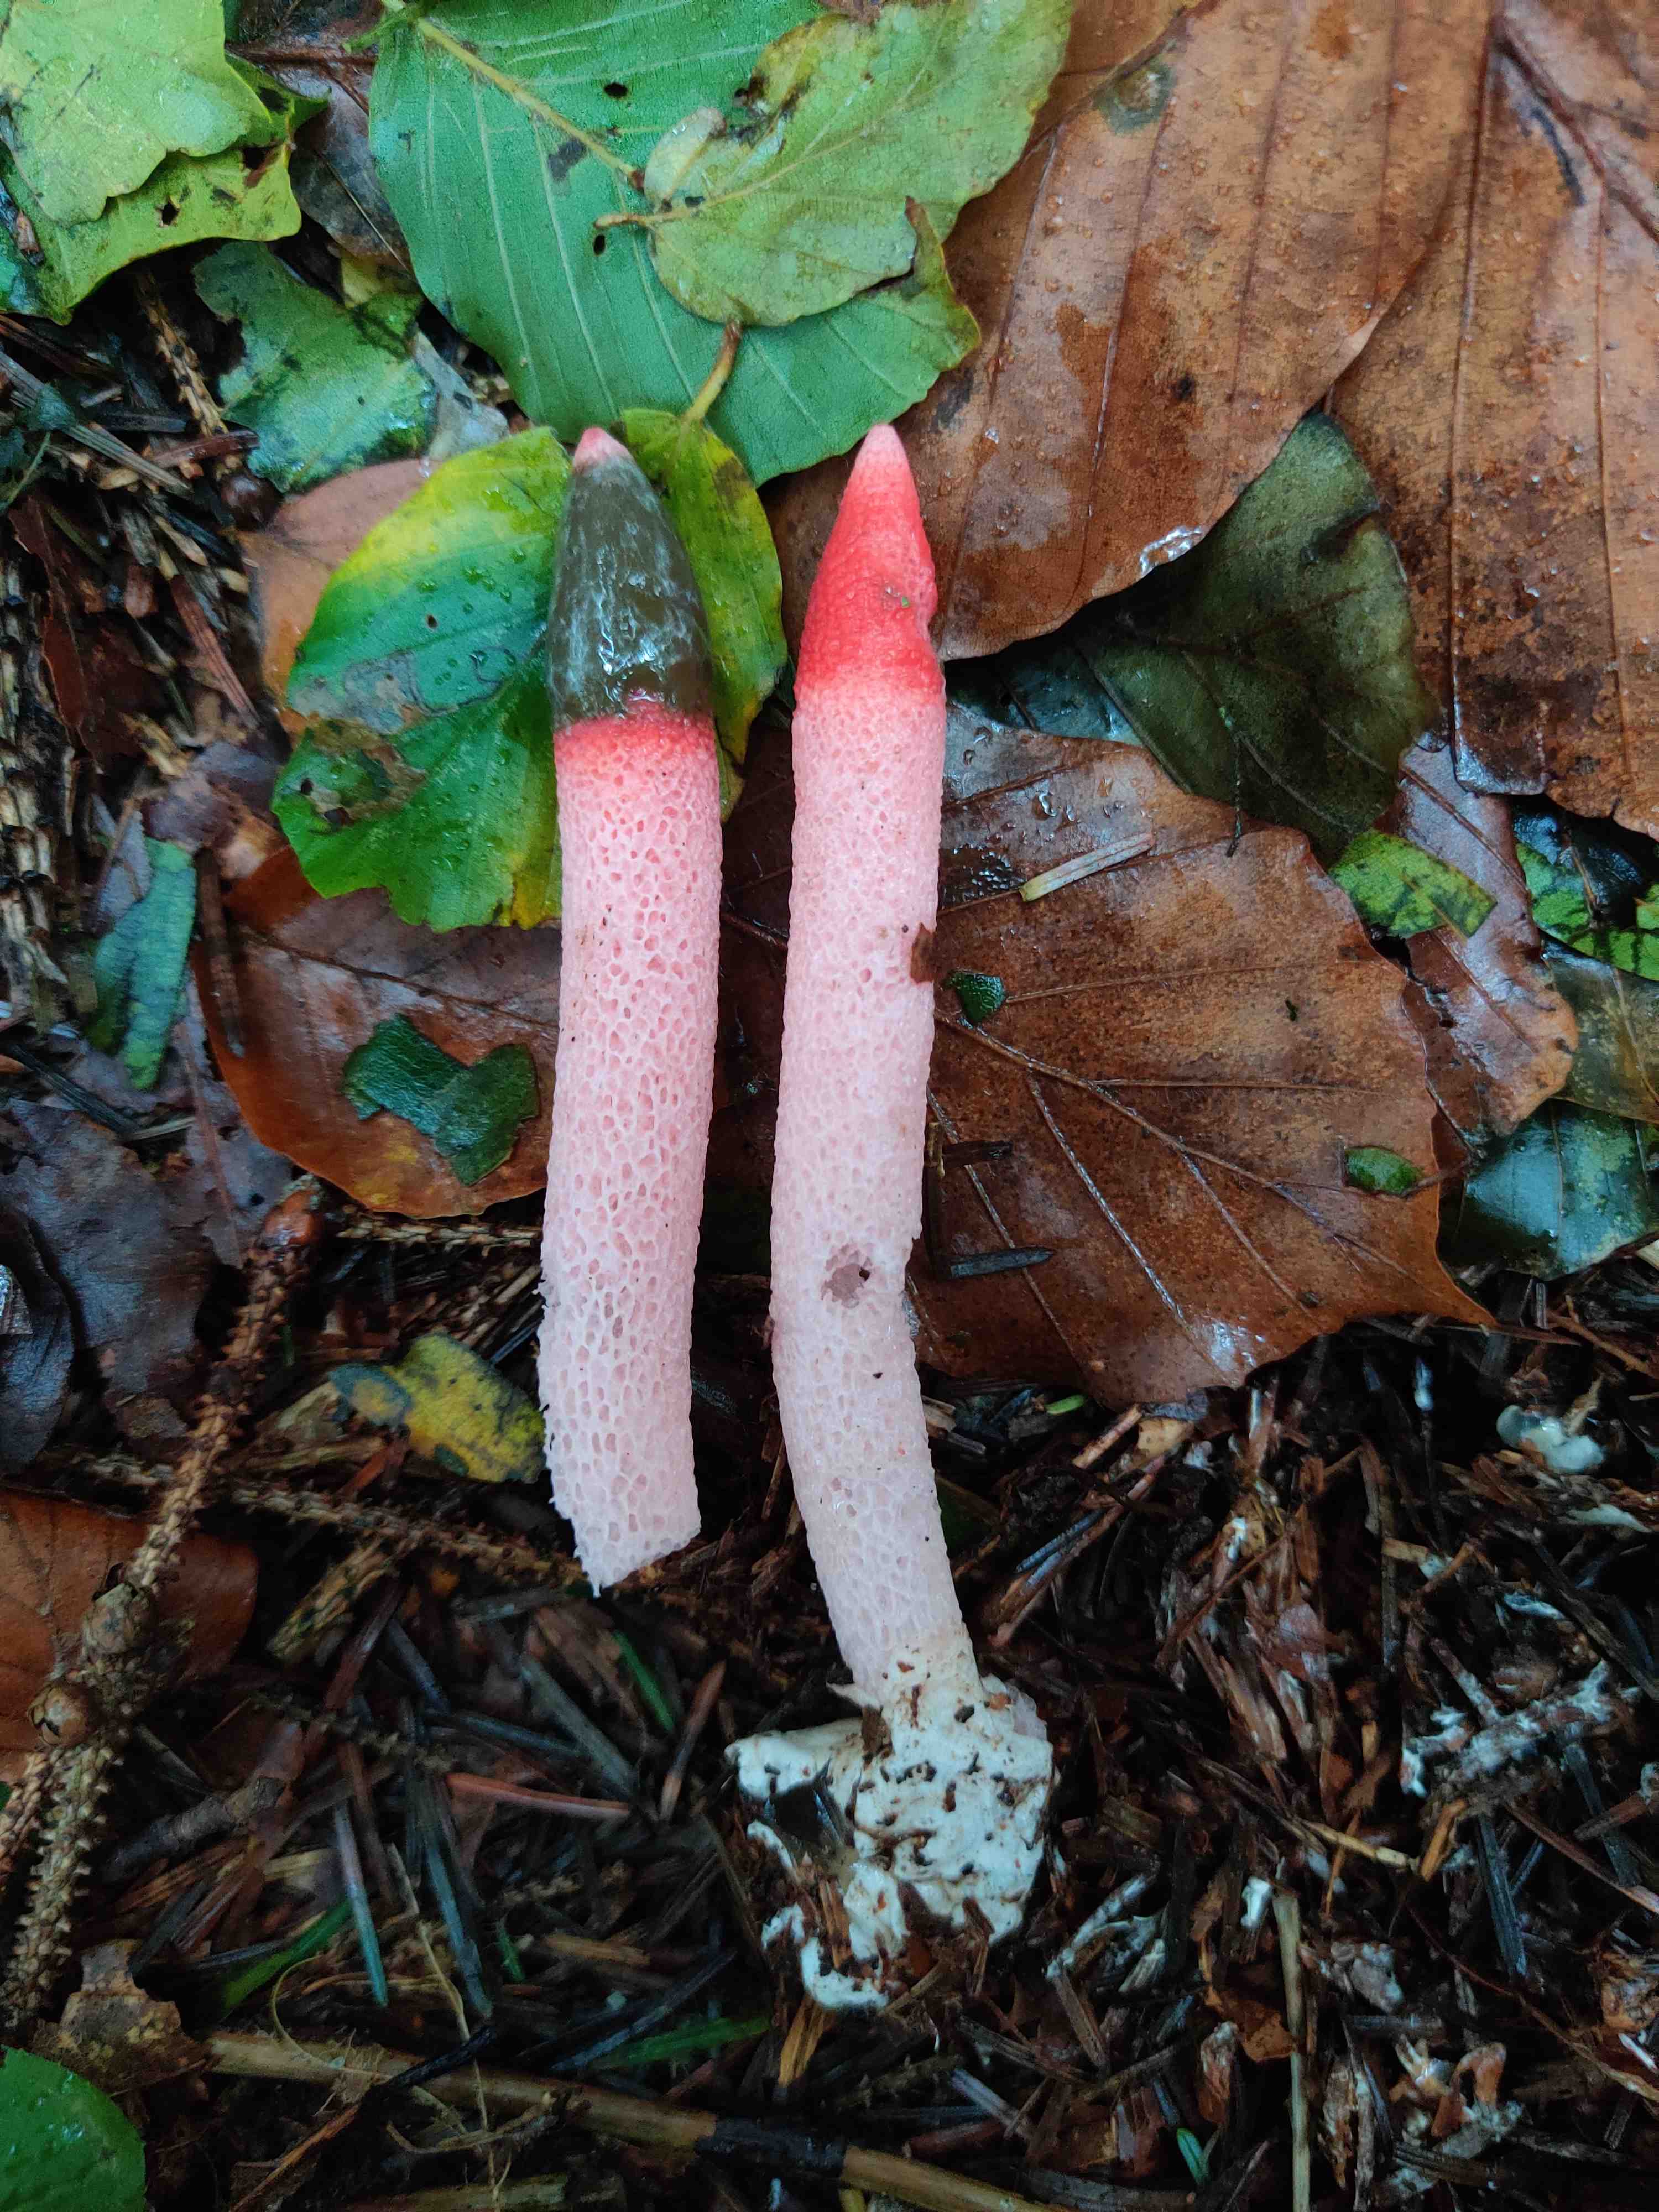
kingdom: Fungi
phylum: Basidiomycota
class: Agaricomycetes
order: Phallales
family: Phallaceae
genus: Mutinus
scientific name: Mutinus ravenelii
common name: rød stinksvamp
